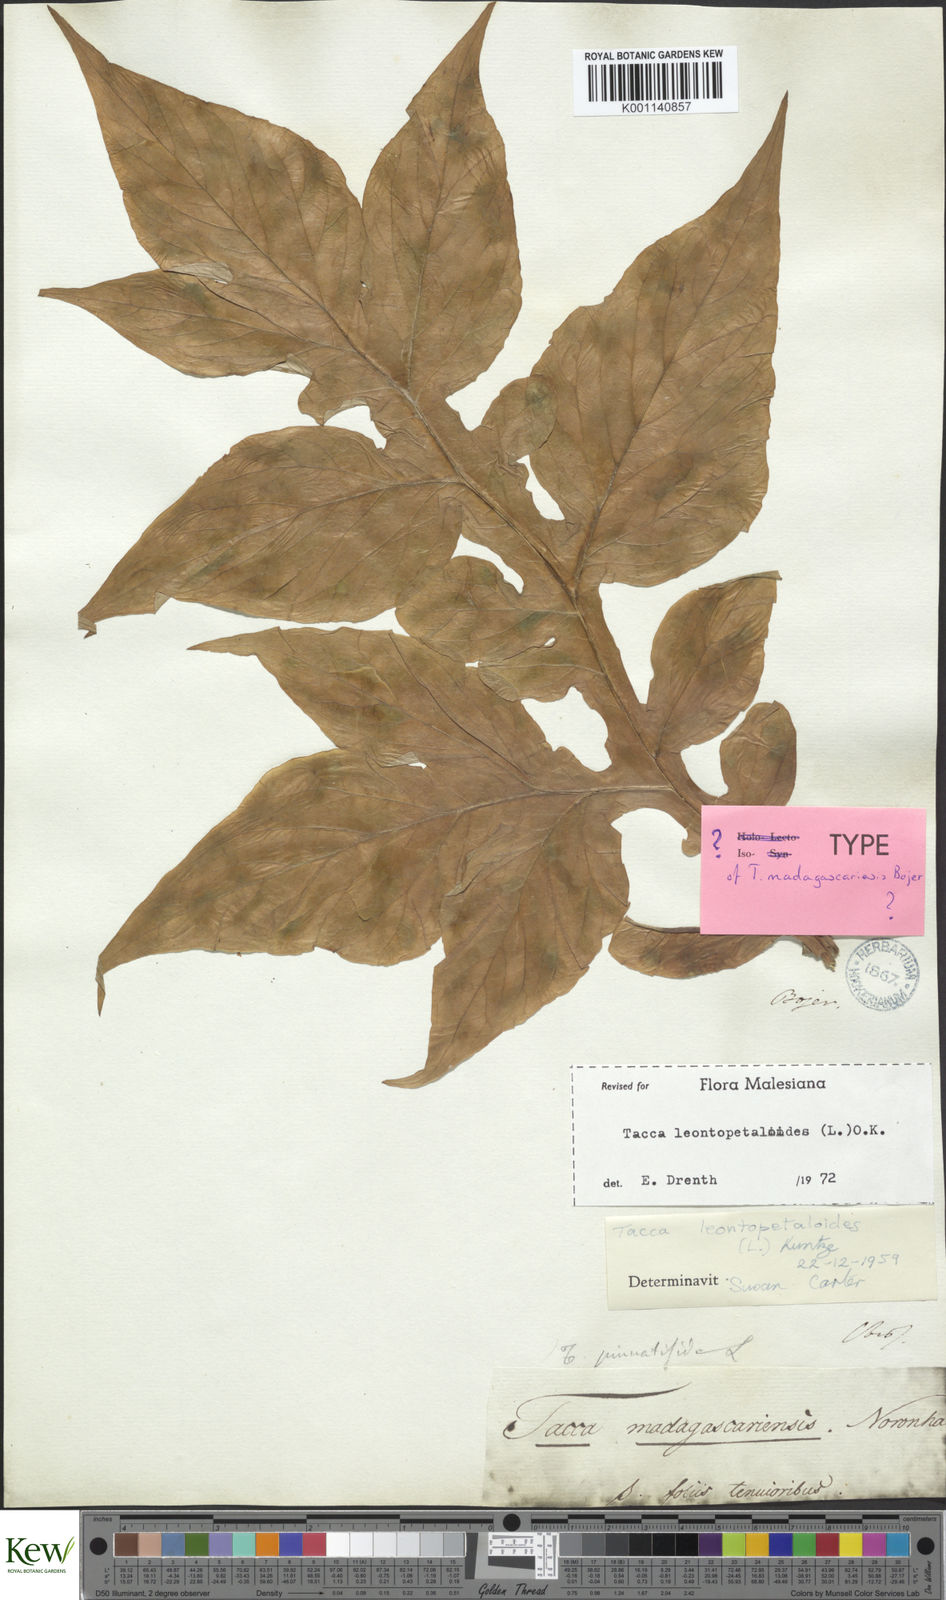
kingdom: Plantae
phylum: Tracheophyta
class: Liliopsida
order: Dioscoreales
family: Dioscoreaceae
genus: Tacca
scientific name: Tacca
